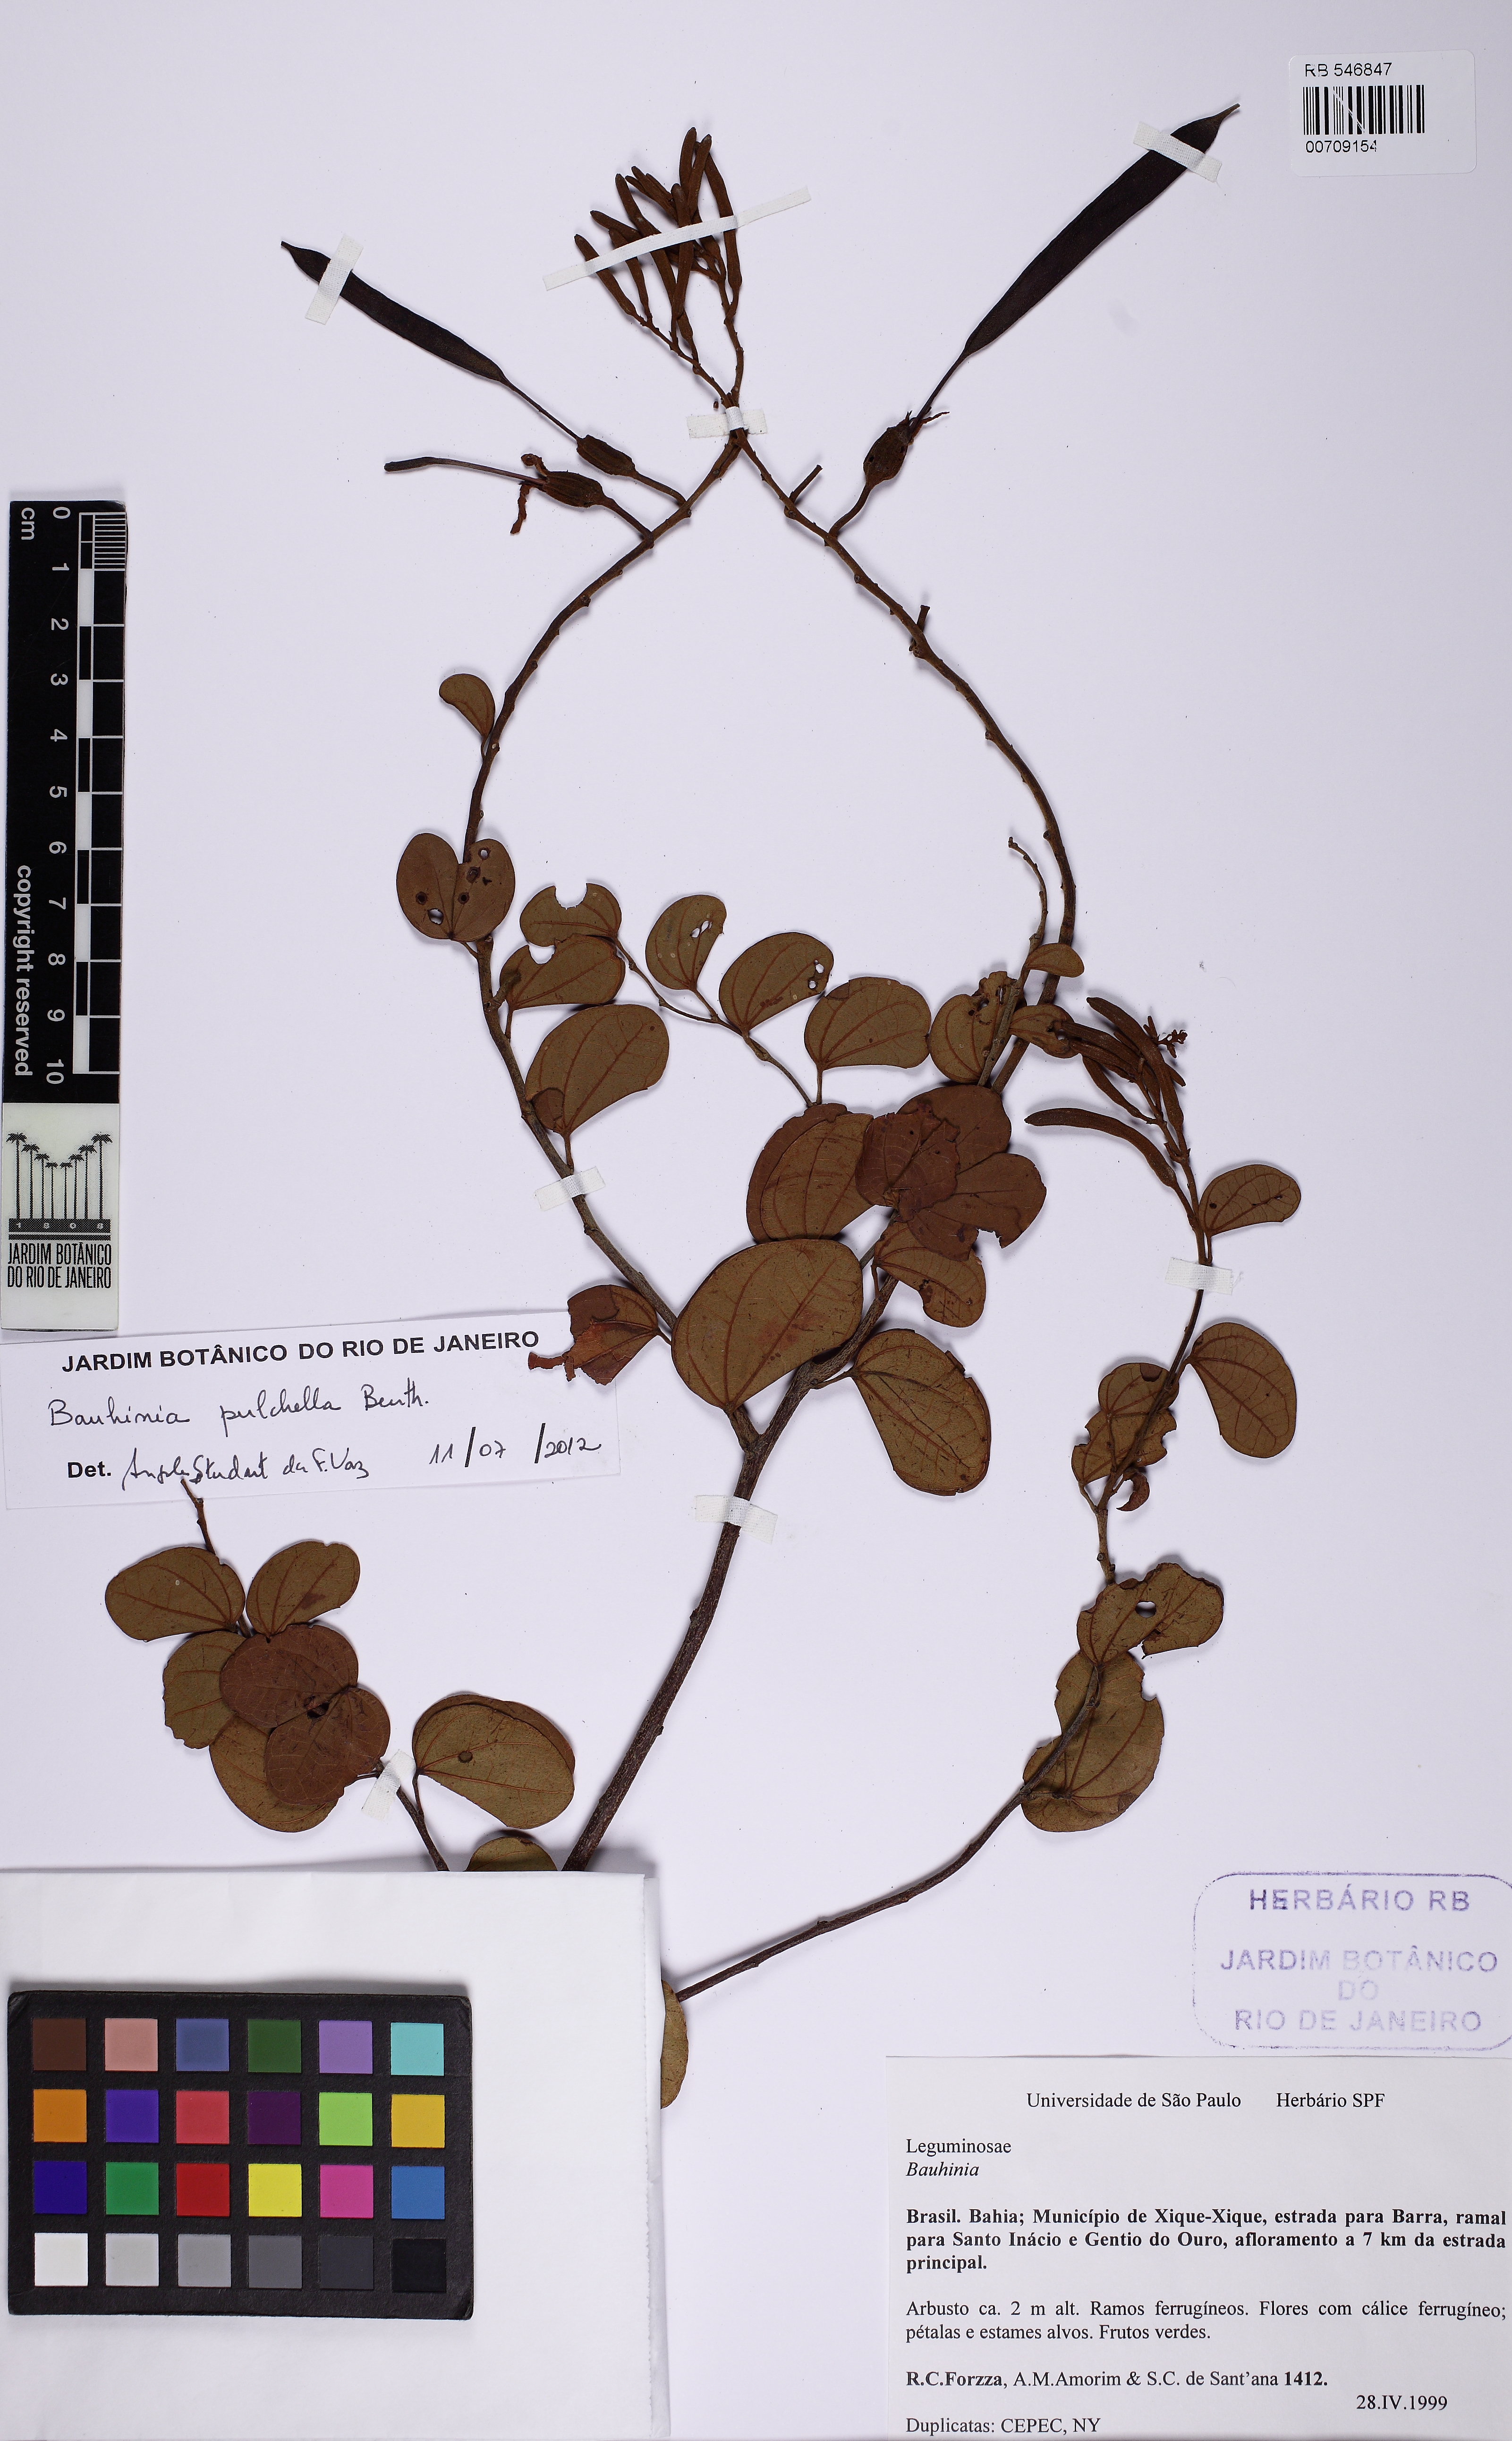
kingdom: Plantae
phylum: Tracheophyta
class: Magnoliopsida
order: Fabales
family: Fabaceae
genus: Bauhinia
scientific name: Bauhinia pulchella
